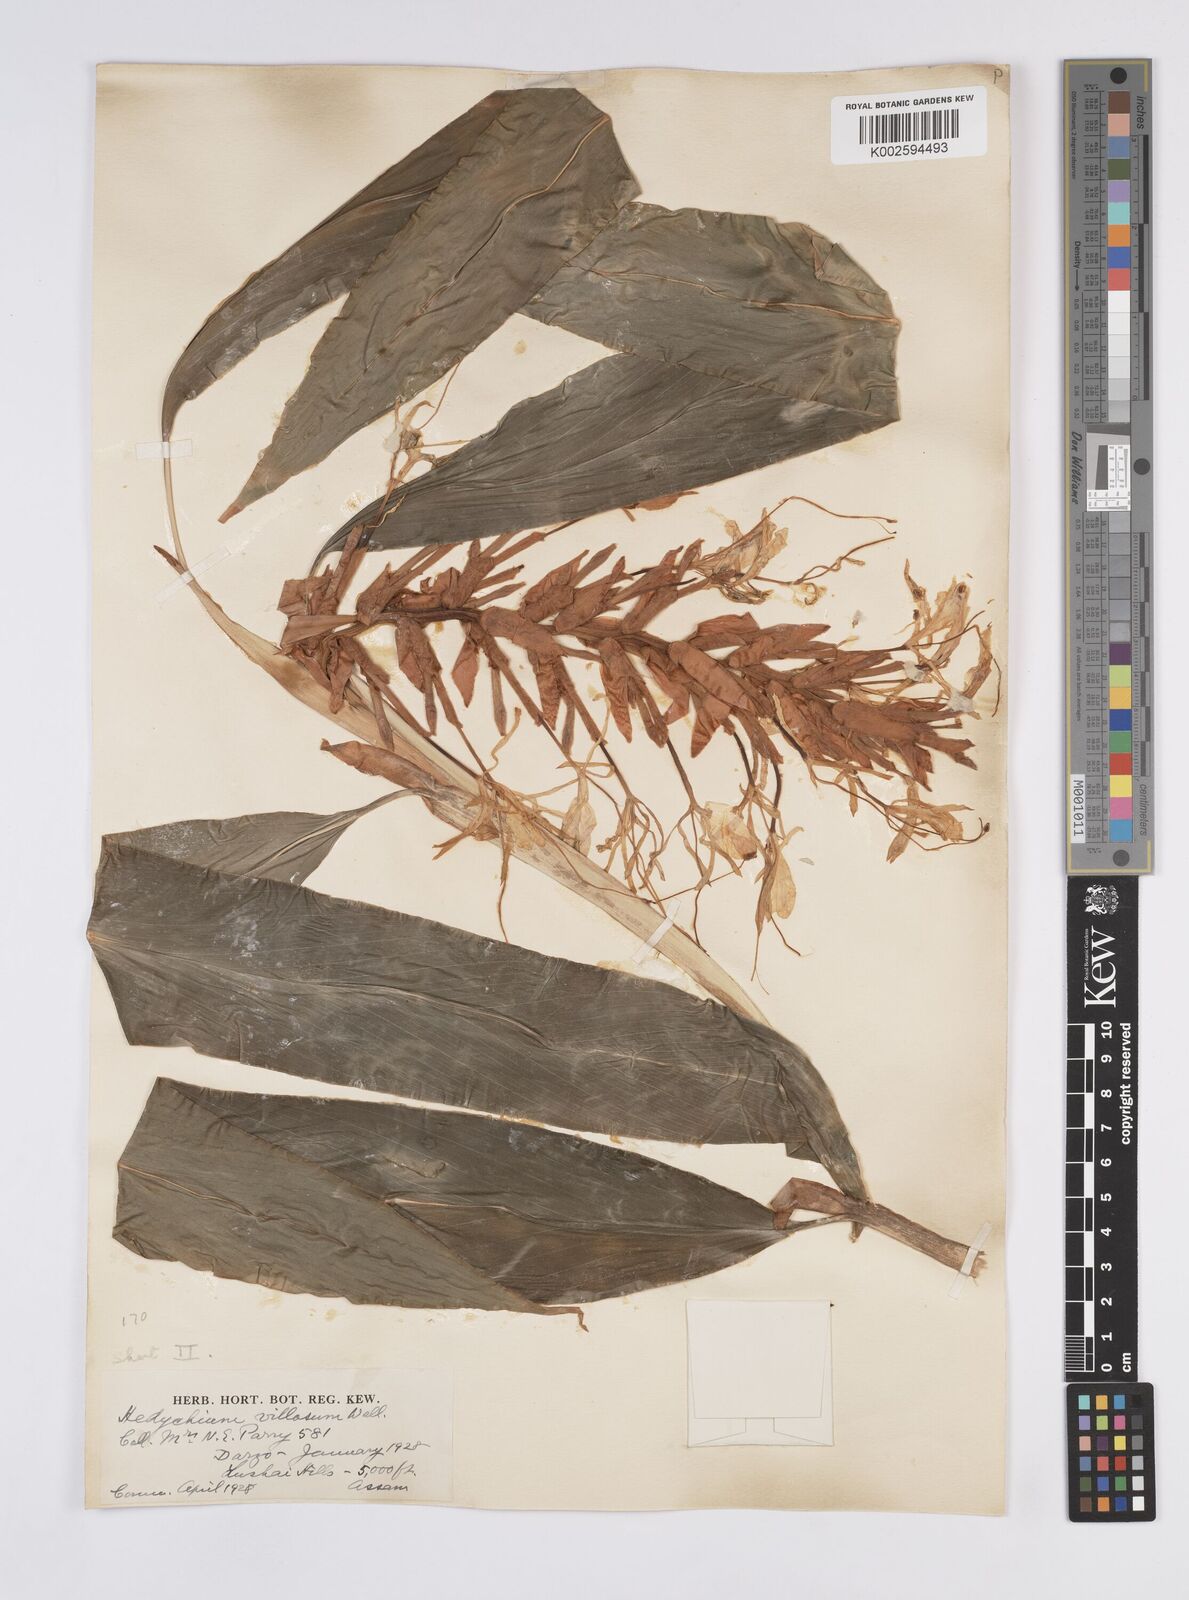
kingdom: Plantae
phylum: Tracheophyta
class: Liliopsida
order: Zingiberales
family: Zingiberaceae
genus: Hedychium
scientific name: Hedychium villosum
